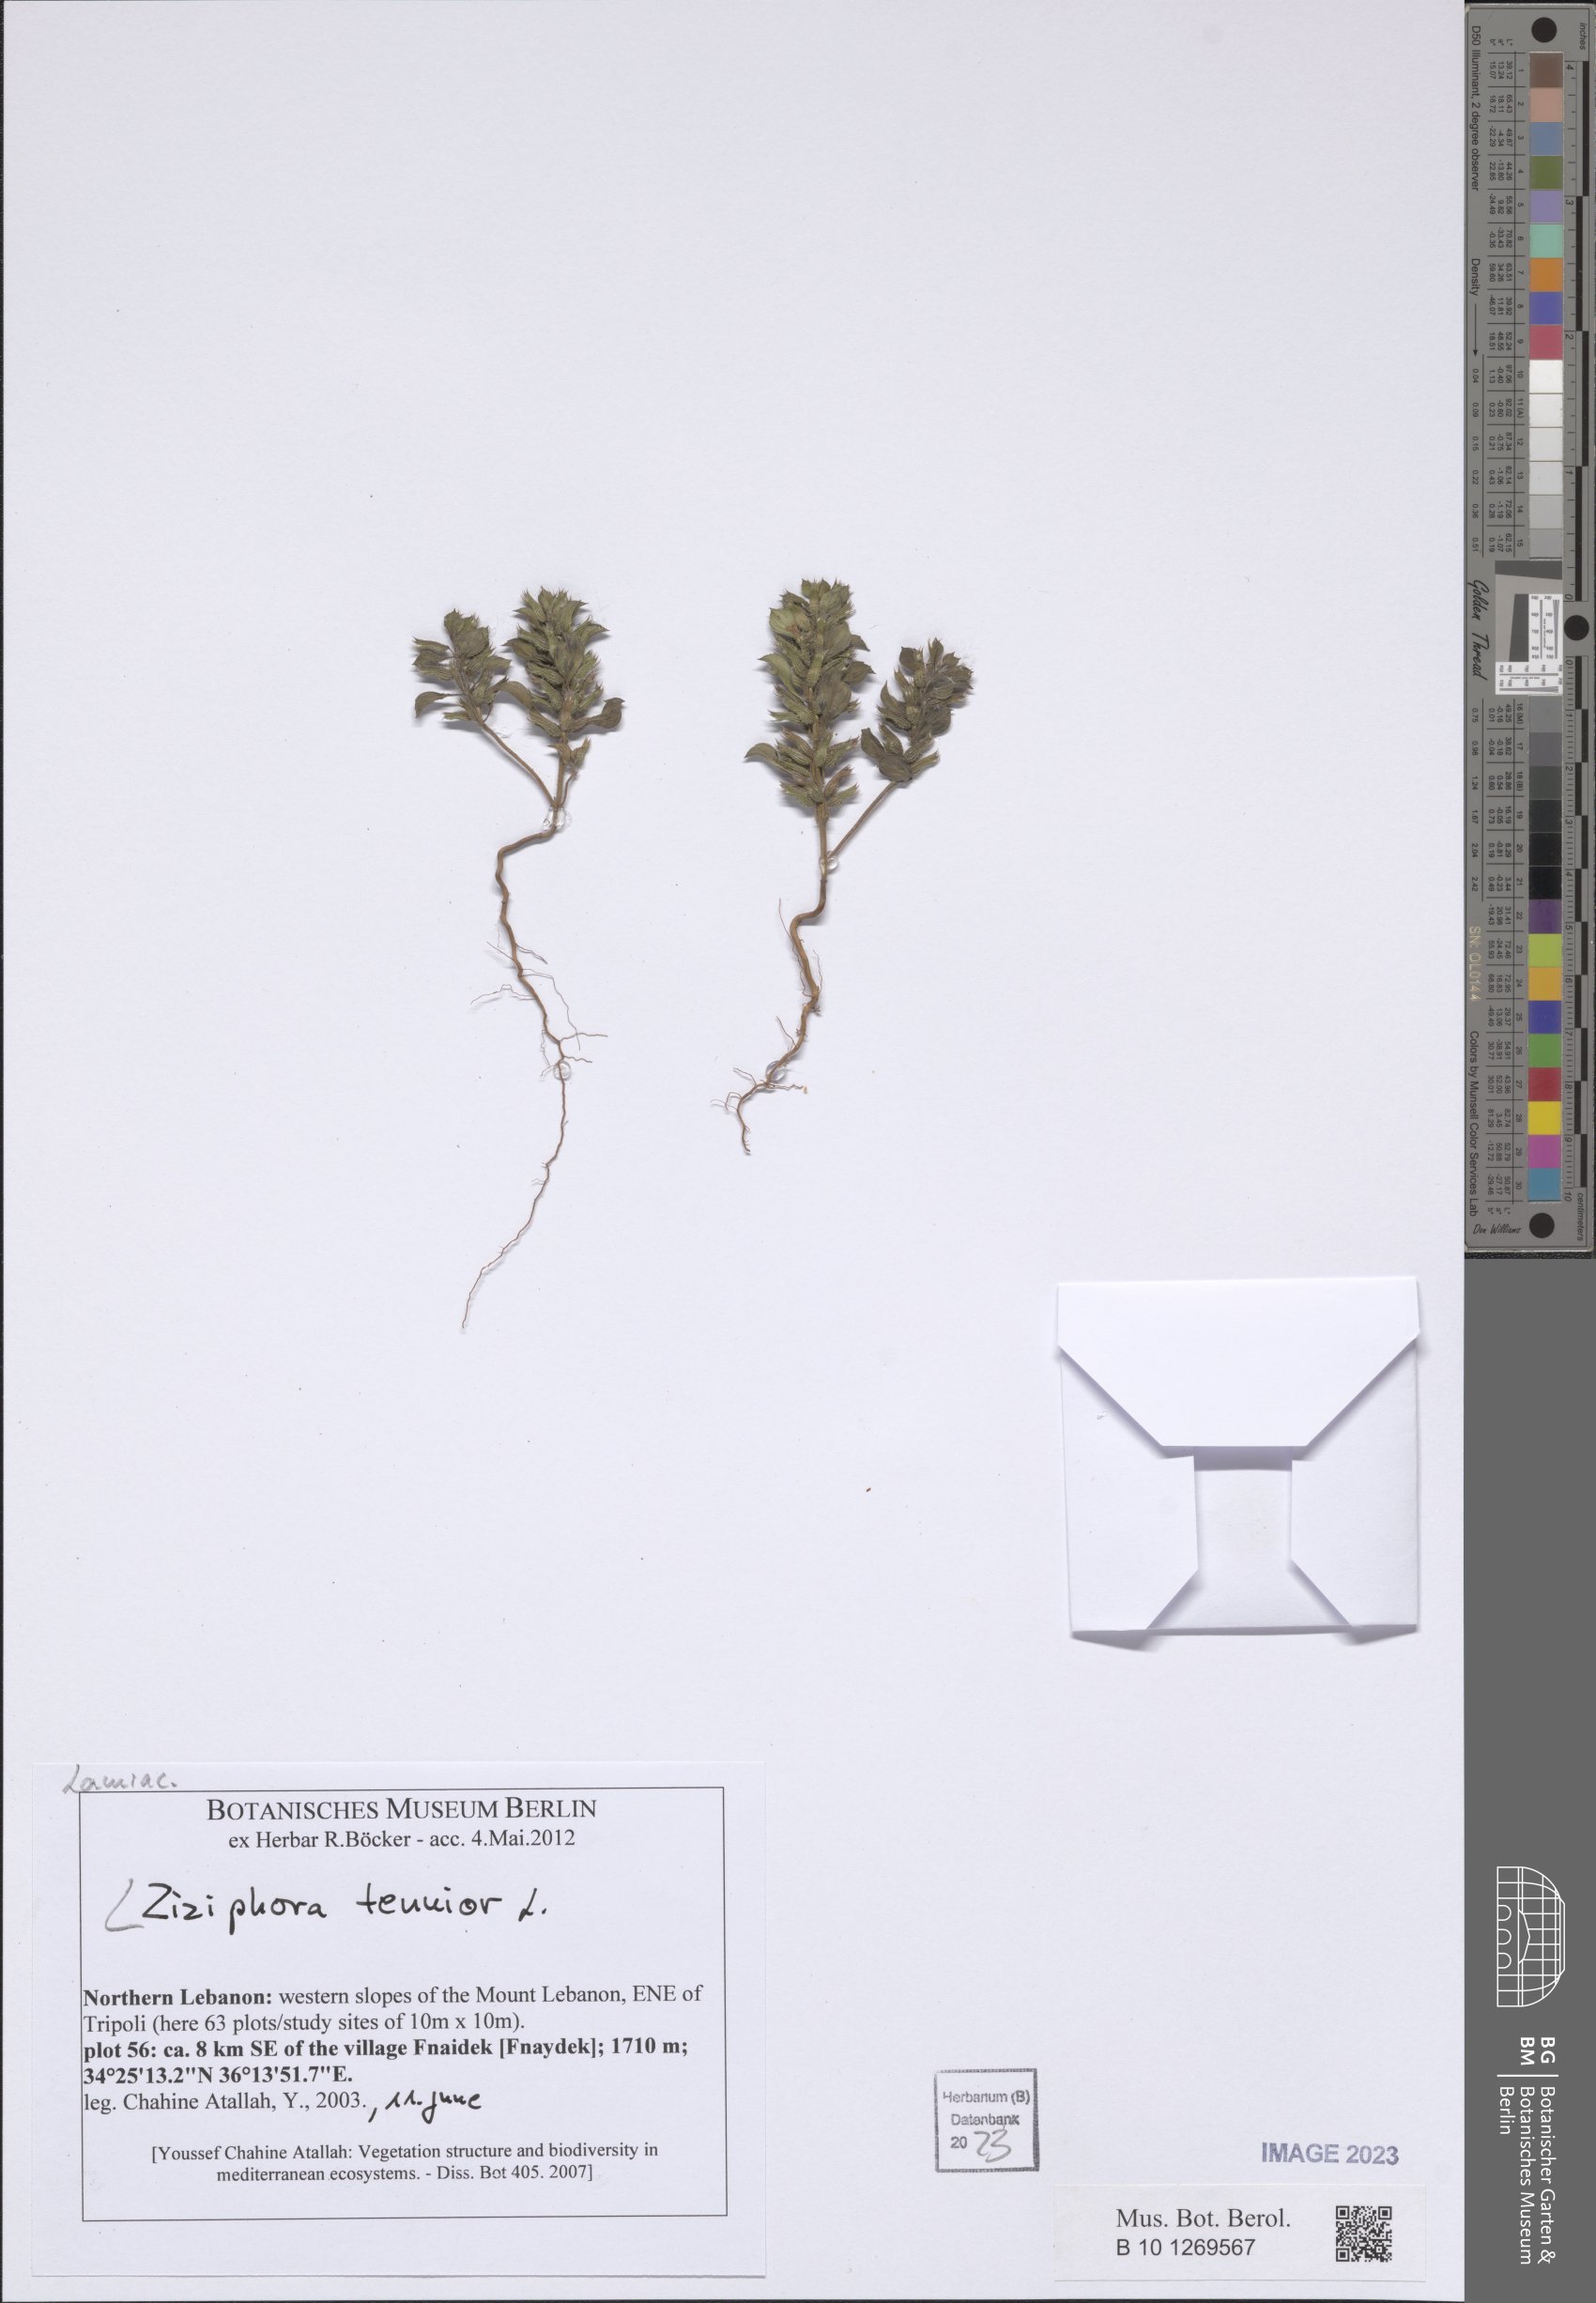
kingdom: Plantae
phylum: Tracheophyta
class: Magnoliopsida
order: Lamiales
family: Lamiaceae
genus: Ziziphora
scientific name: Ziziphora tenuior
